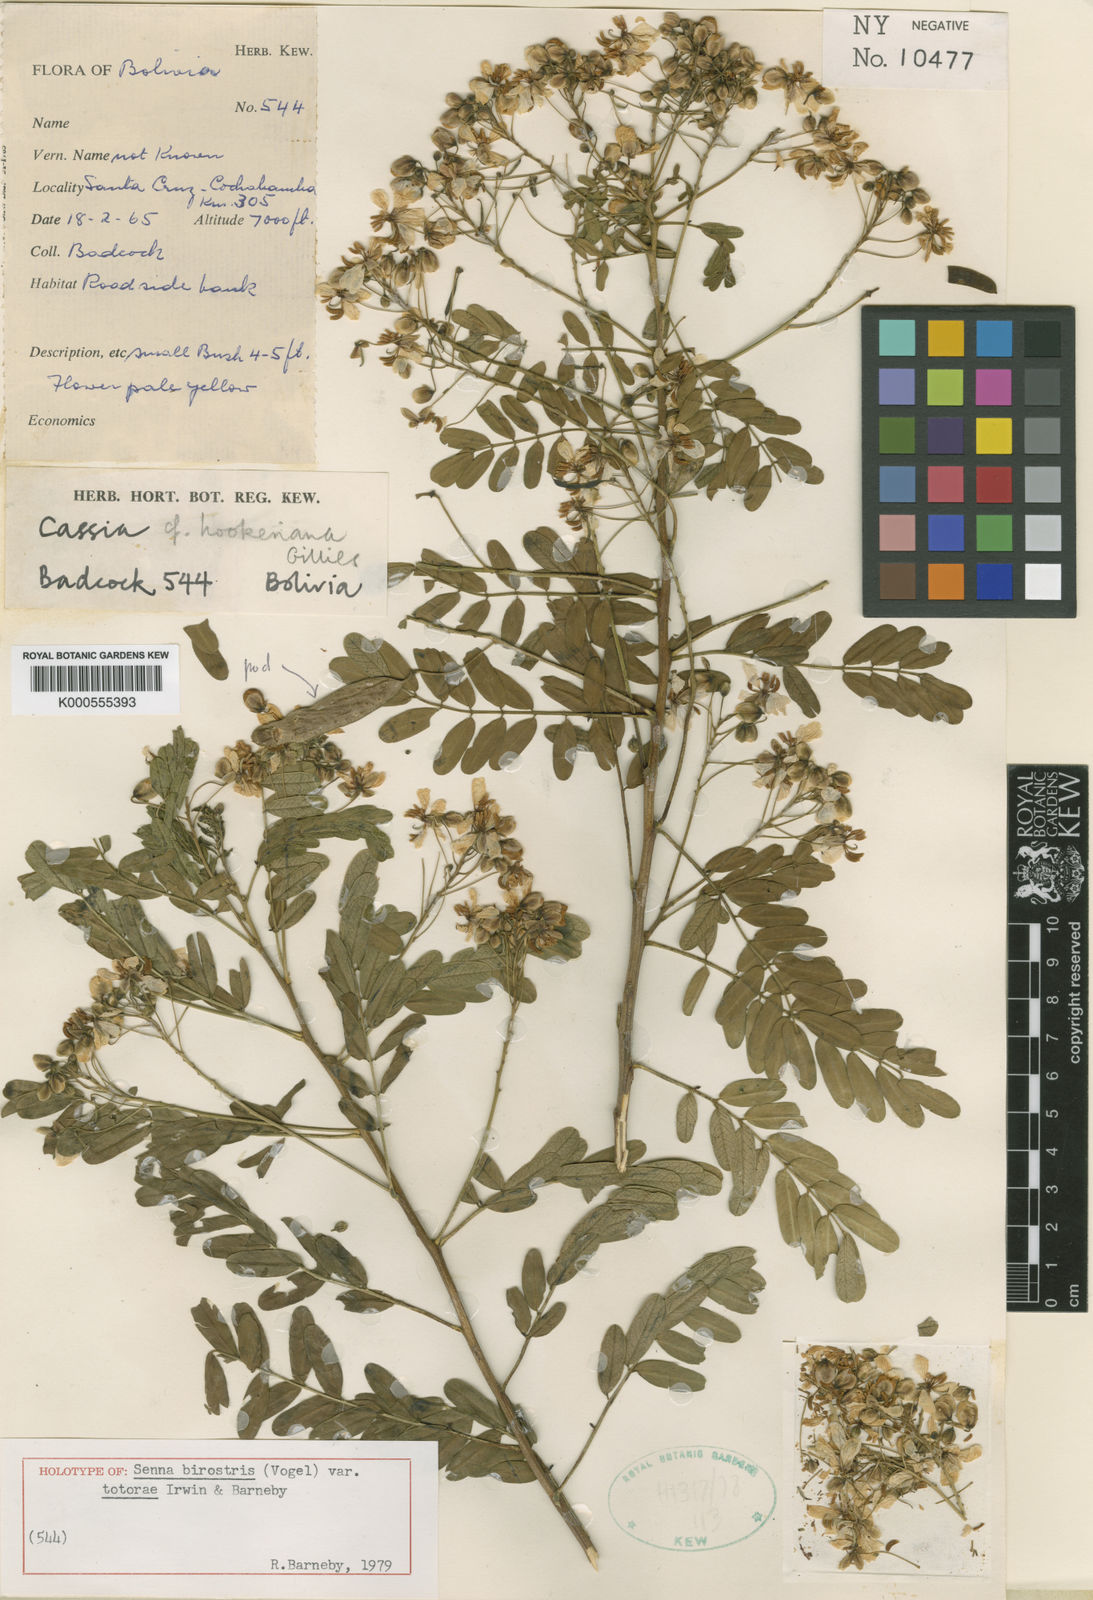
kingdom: Plantae
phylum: Tracheophyta
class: Magnoliopsida
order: Fabales
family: Fabaceae
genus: Senna
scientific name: Senna birostris
